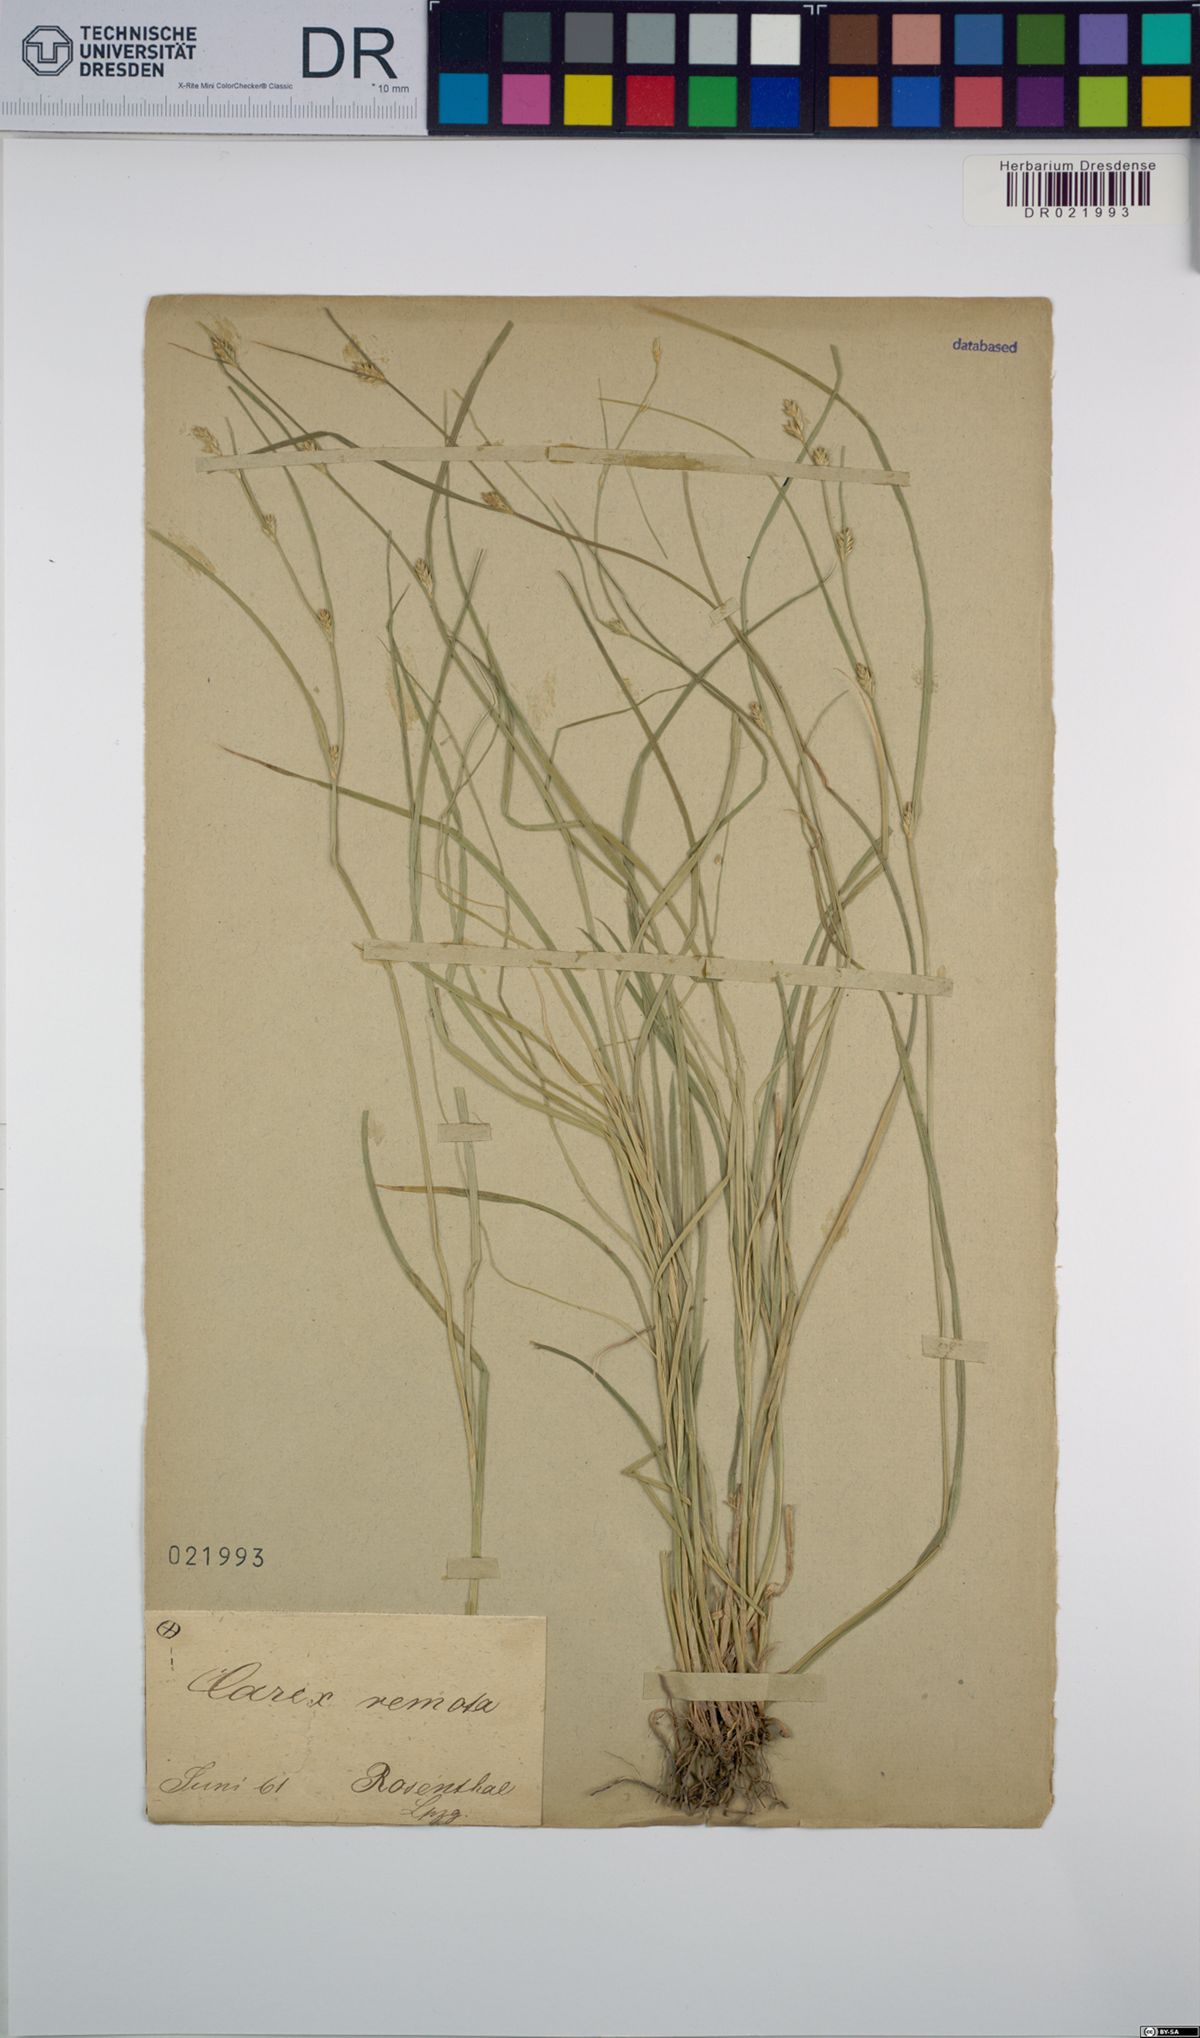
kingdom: Plantae
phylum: Tracheophyta
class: Liliopsida
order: Poales
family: Cyperaceae
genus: Carex
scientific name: Carex remota
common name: Remote sedge
